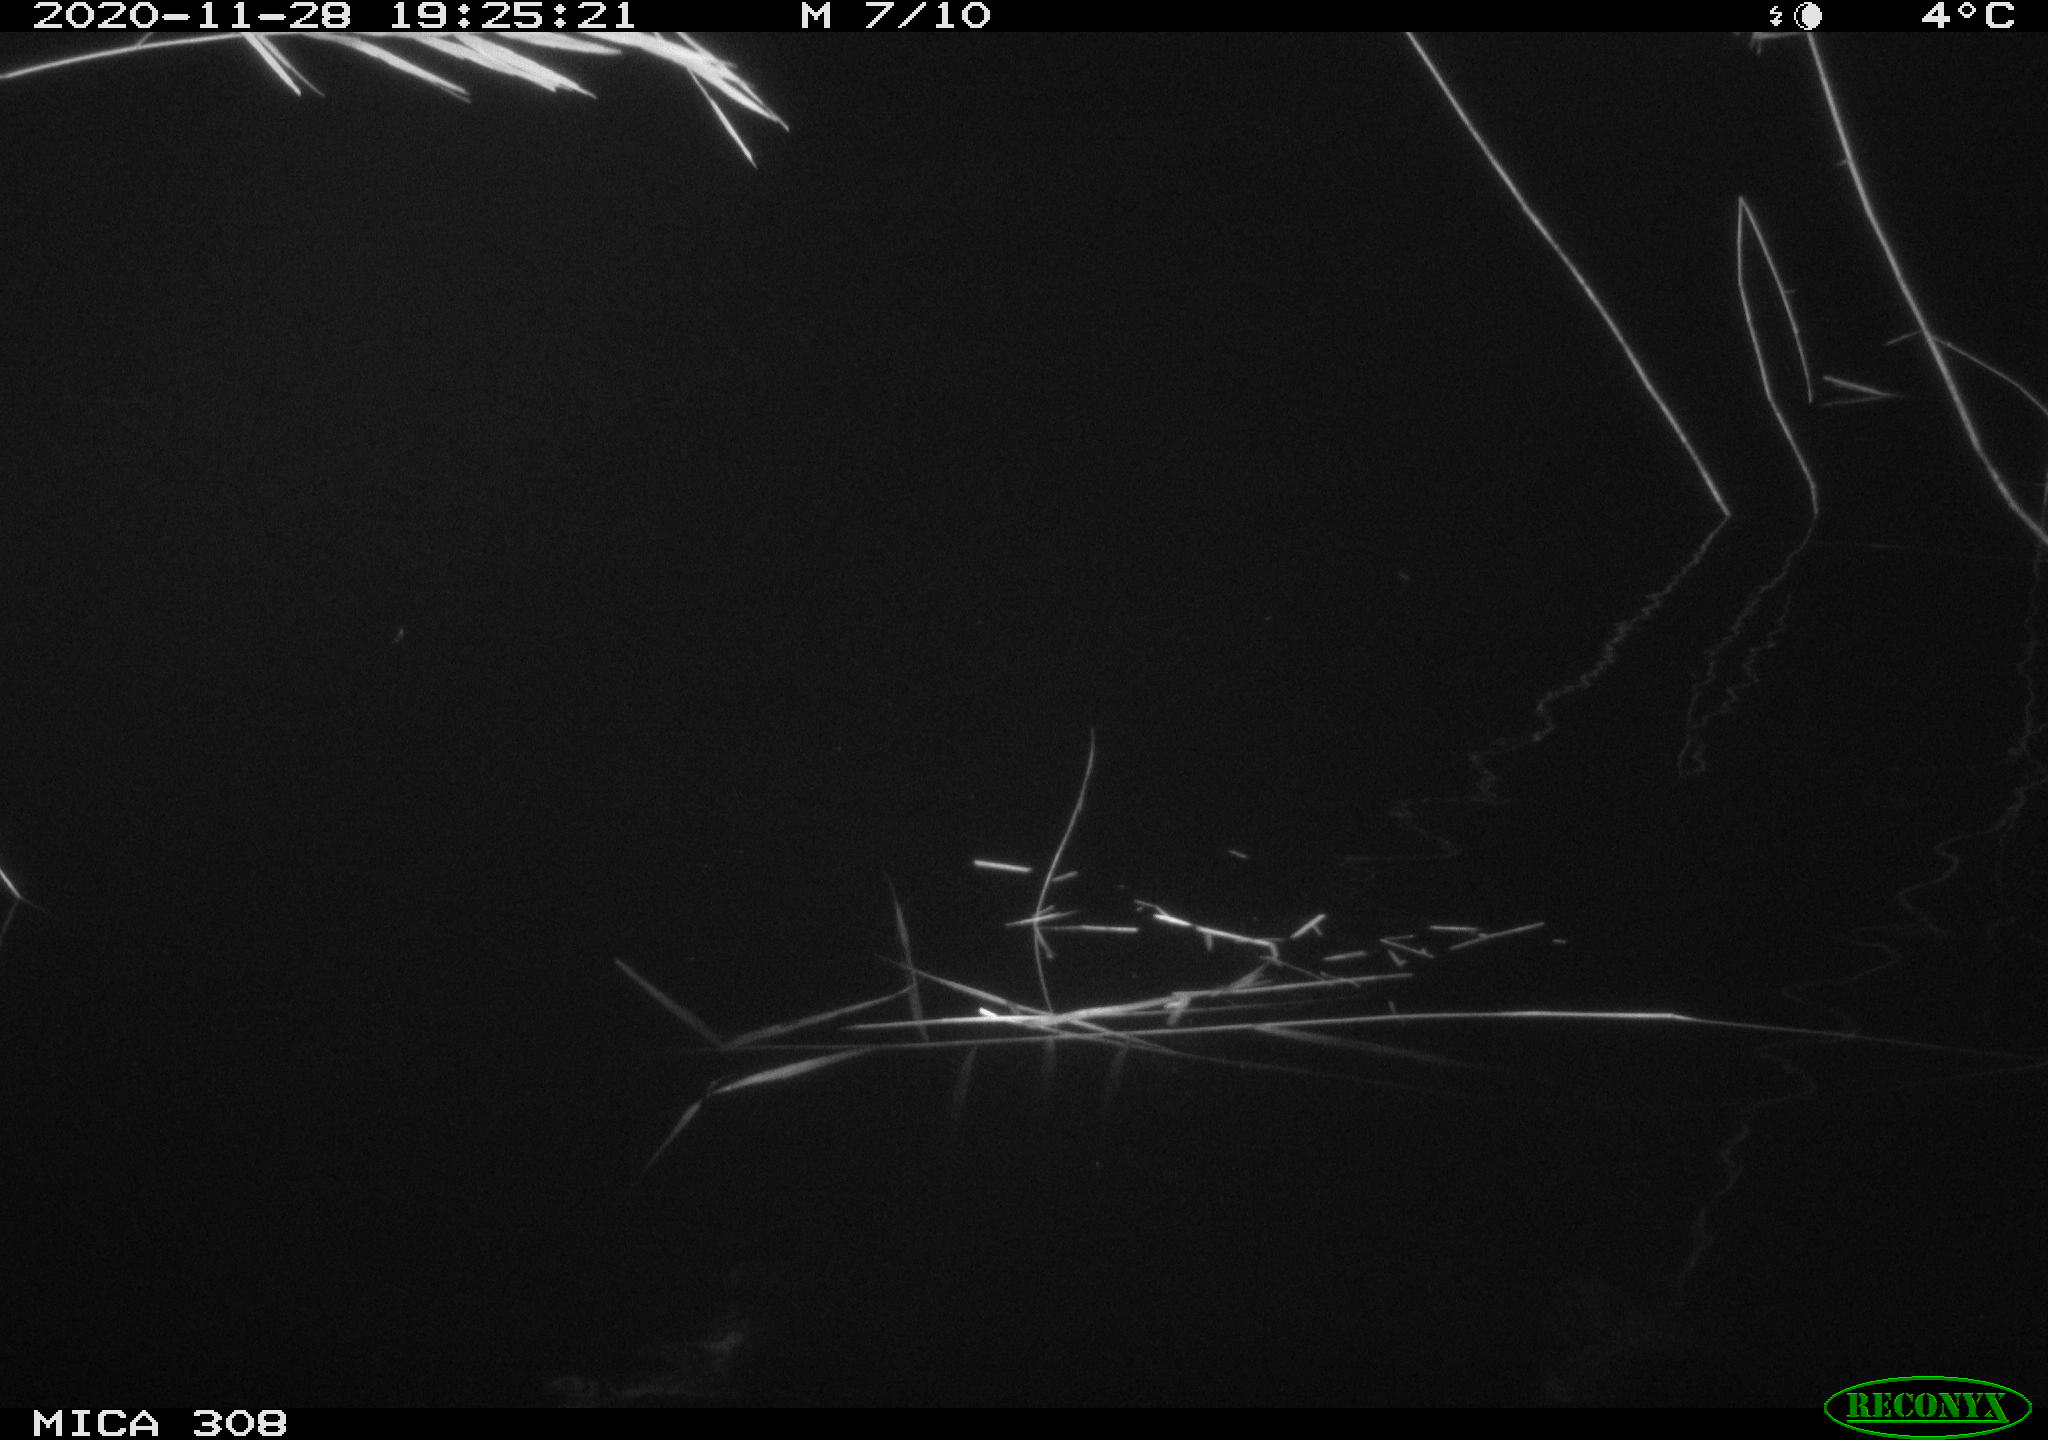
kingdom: Animalia
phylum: Chordata
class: Mammalia
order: Rodentia
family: Muridae
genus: Rattus
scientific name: Rattus norvegicus
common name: Brown rat
